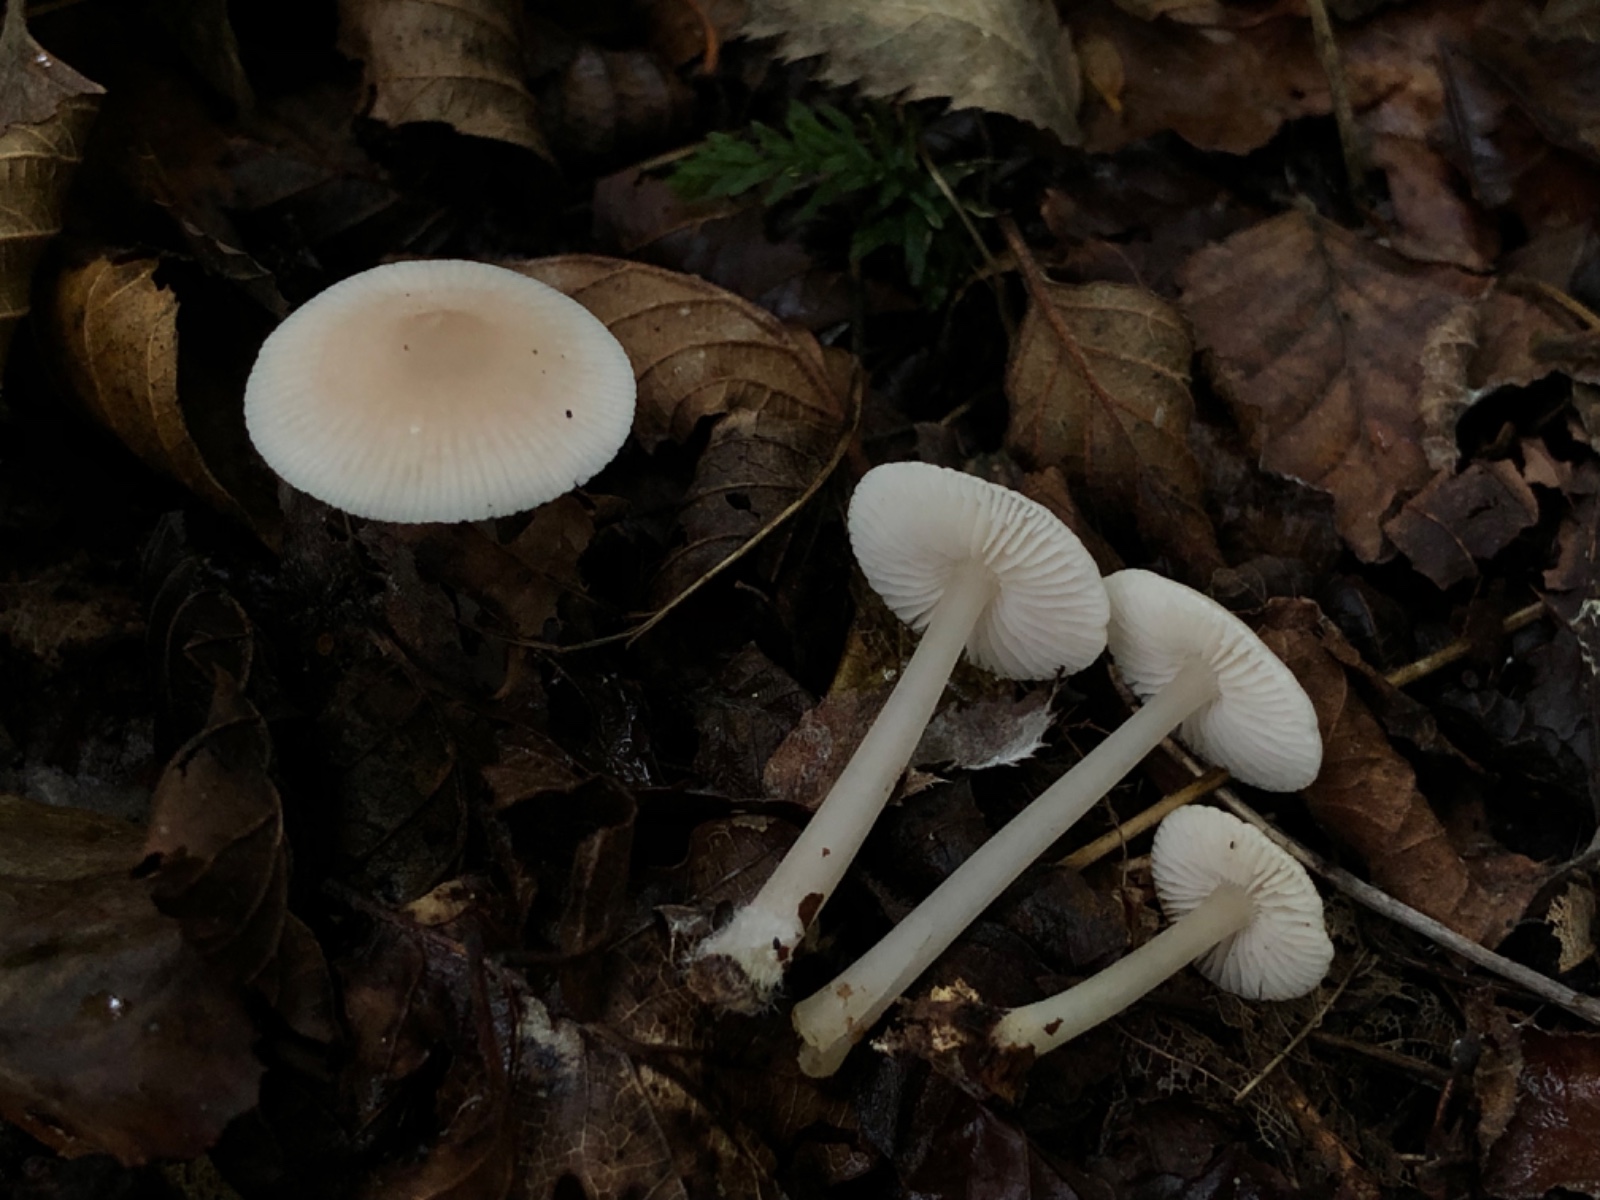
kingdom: Fungi
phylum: Basidiomycota
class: Agaricomycetes
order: Agaricales
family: Mycenaceae
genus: Mycena
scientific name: Mycena pura
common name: Lilac bonnet
